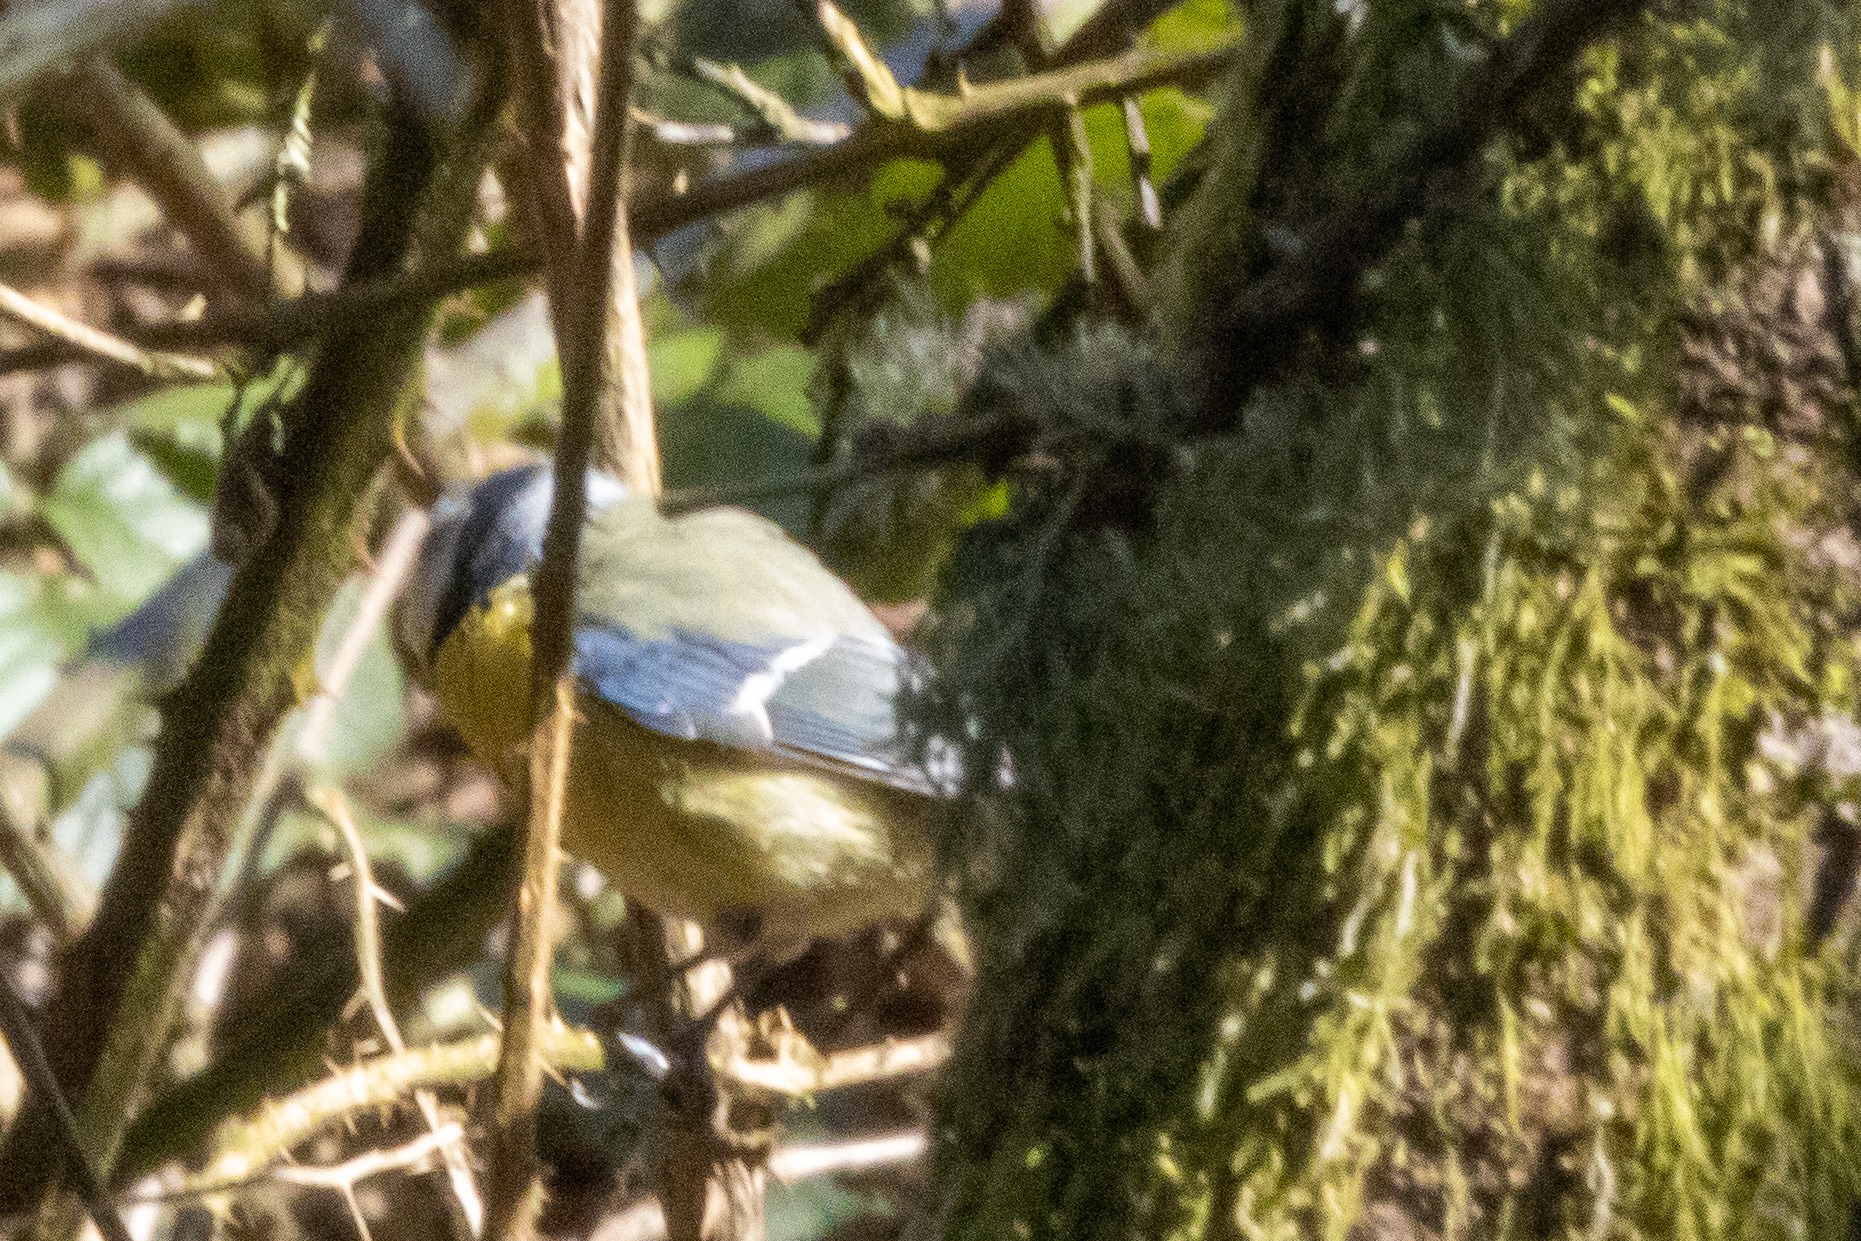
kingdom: Animalia
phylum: Chordata
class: Aves
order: Passeriformes
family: Paridae
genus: Cyanistes
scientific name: Cyanistes caeruleus
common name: Blåmejse
